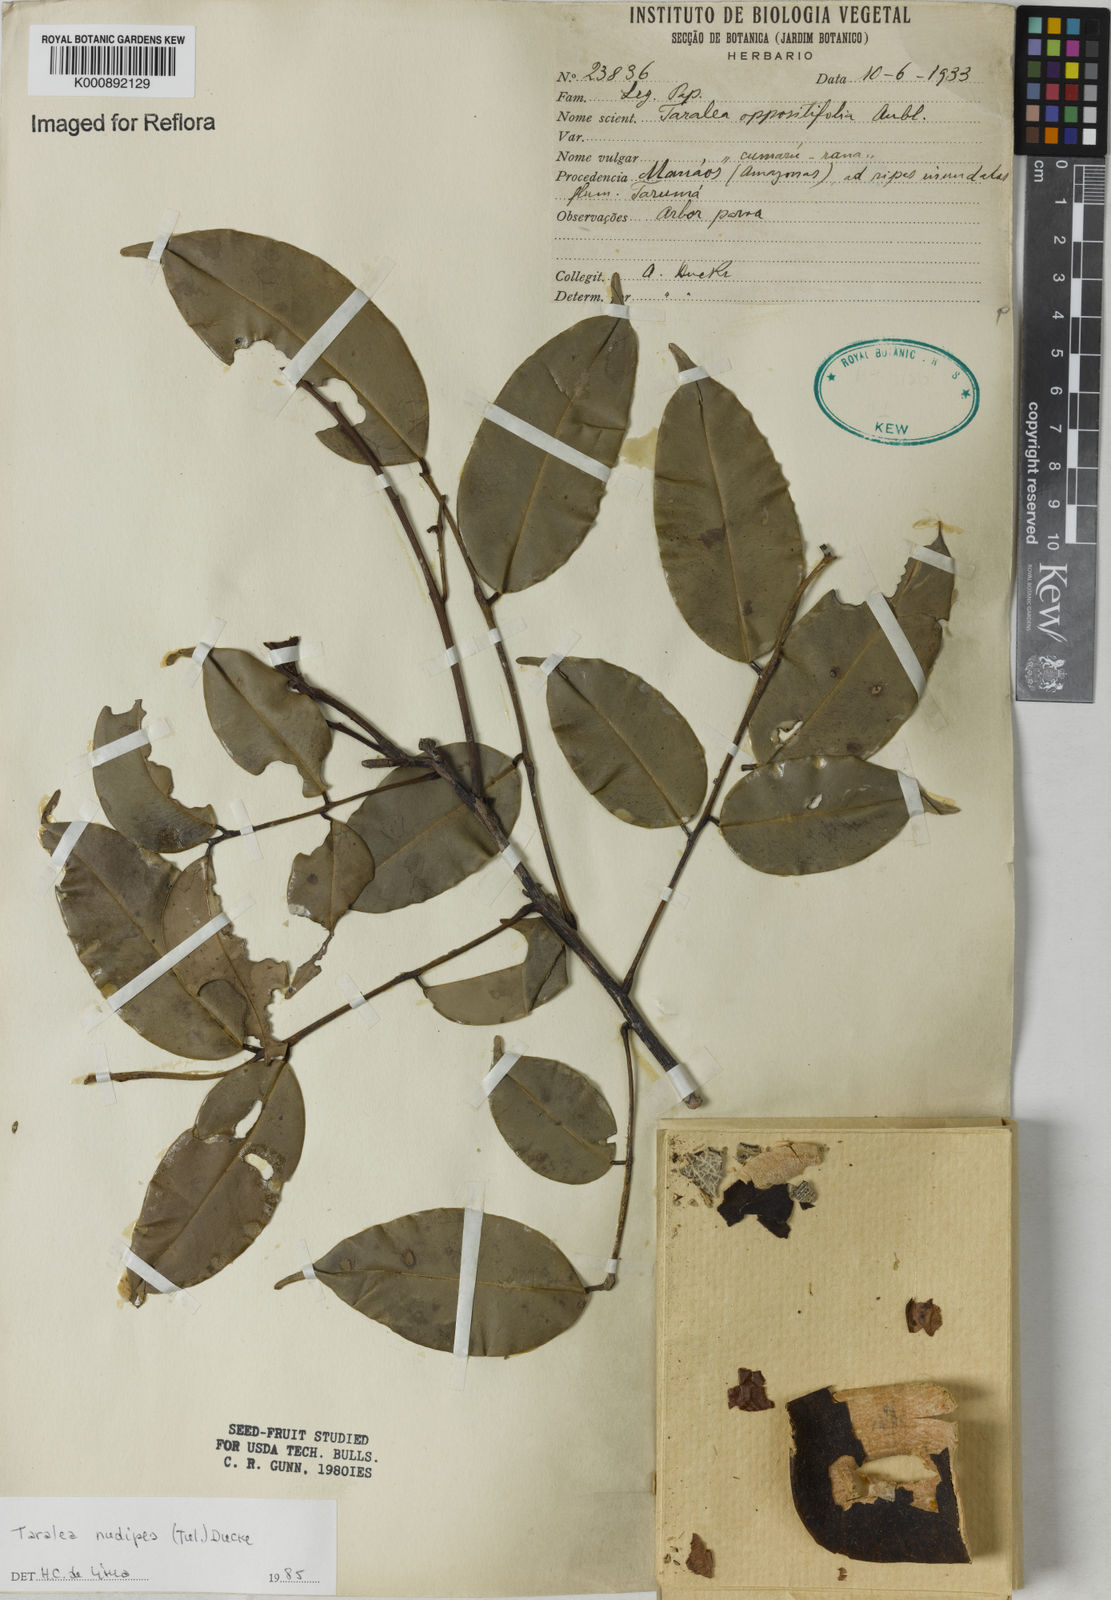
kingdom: Plantae
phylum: Tracheophyta
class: Magnoliopsida
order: Fabales
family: Fabaceae
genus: Taralea
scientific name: Taralea nudipes
